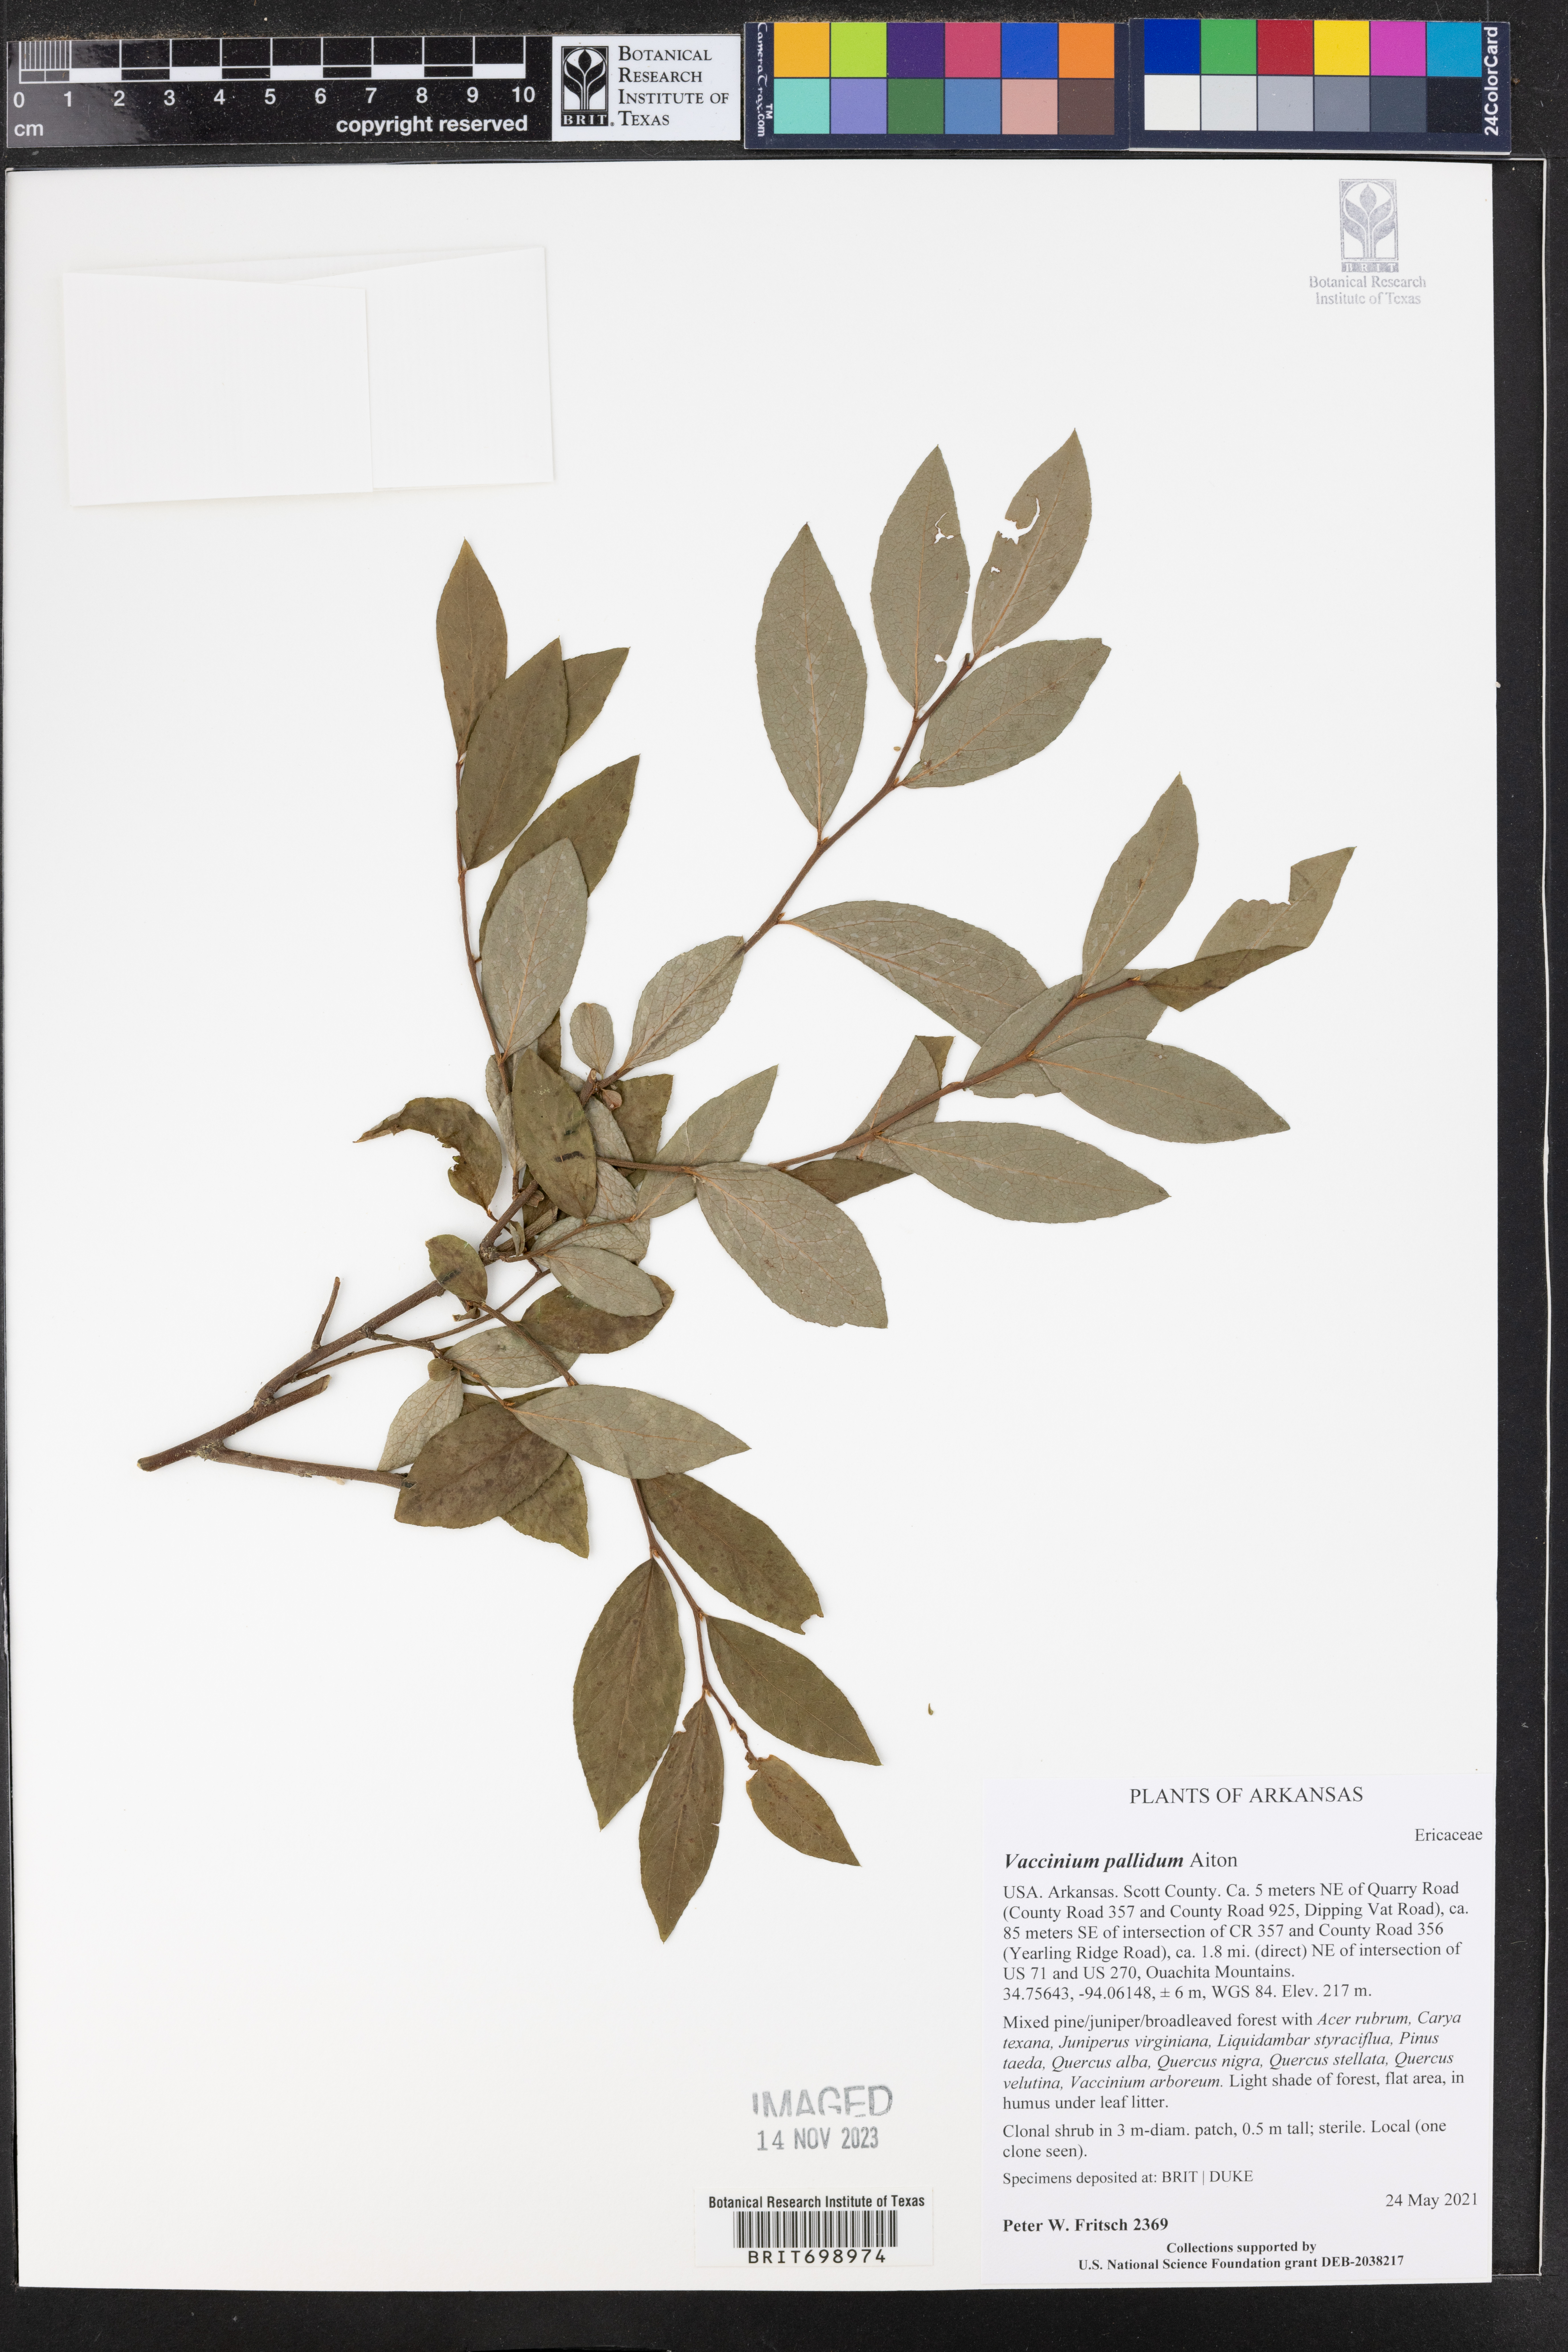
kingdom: Plantae
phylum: Tracheophyta
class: Magnoliopsida
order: Ericales
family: Ericaceae
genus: Vaccinium
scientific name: Vaccinium pallidum
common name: Blue ridge blueberry
